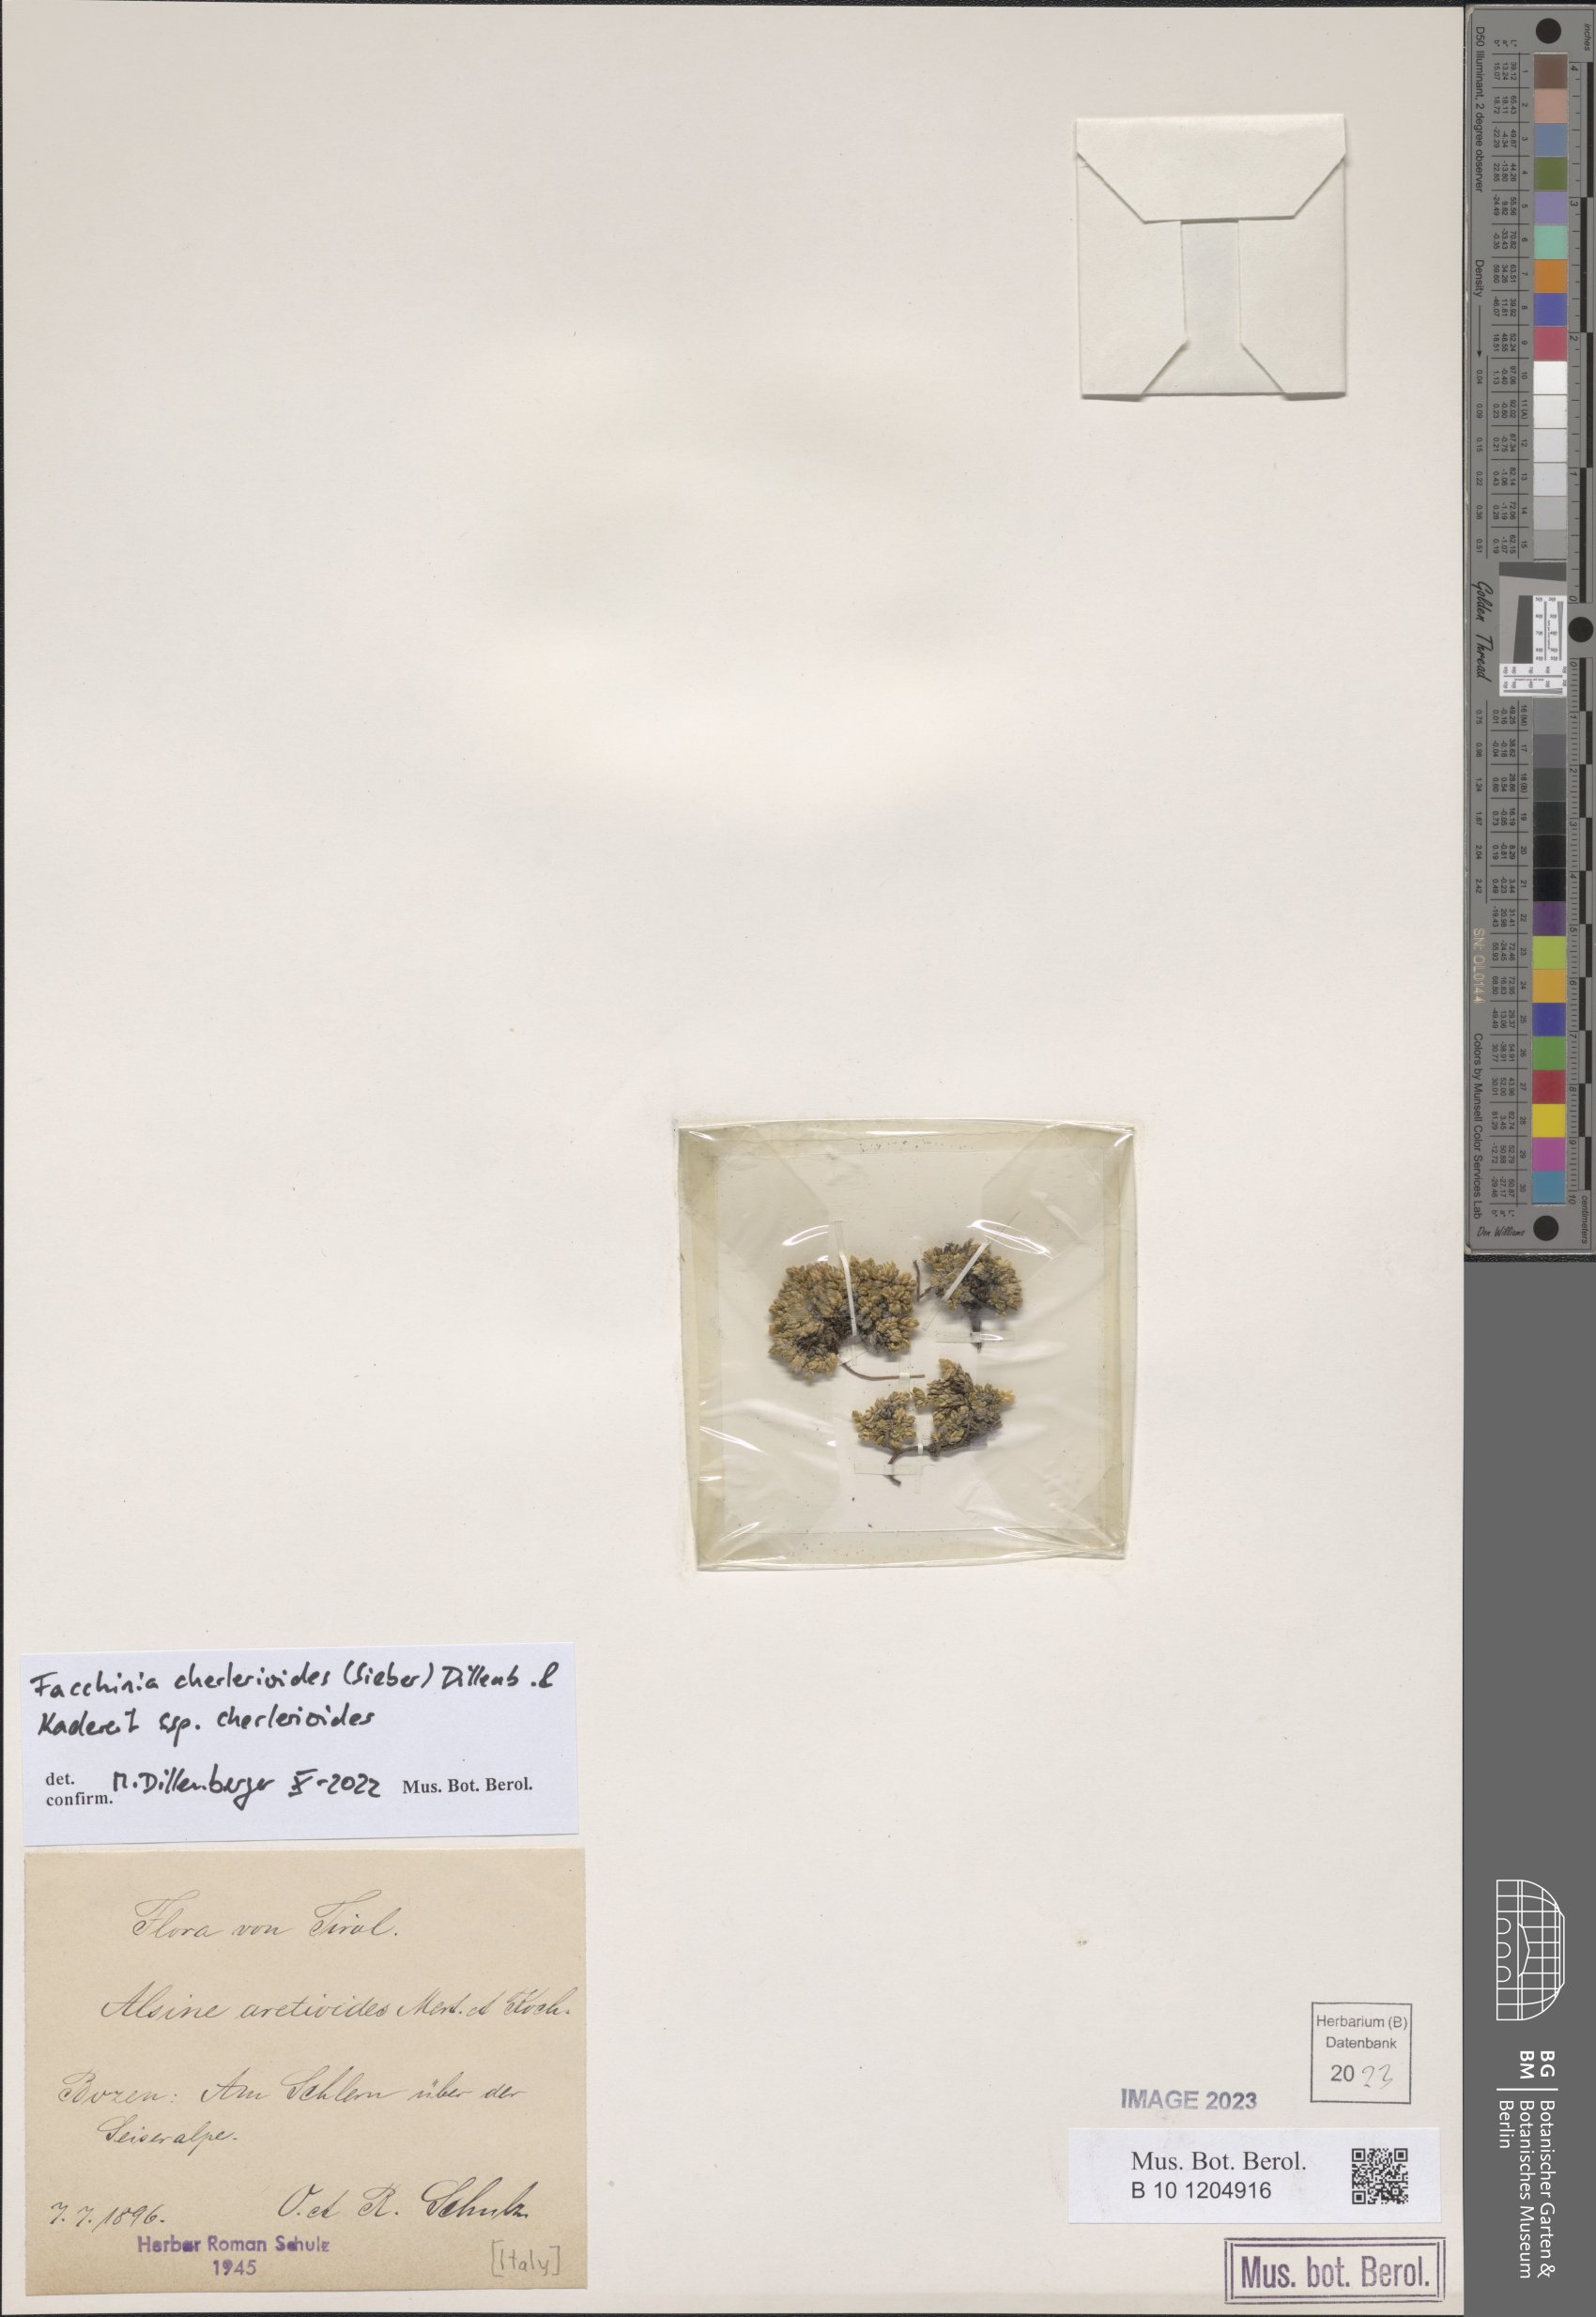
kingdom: Plantae
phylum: Tracheophyta
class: Magnoliopsida
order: Caryophyllales
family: Caryophyllaceae
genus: Facchinia
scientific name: Facchinia cherlerioides
